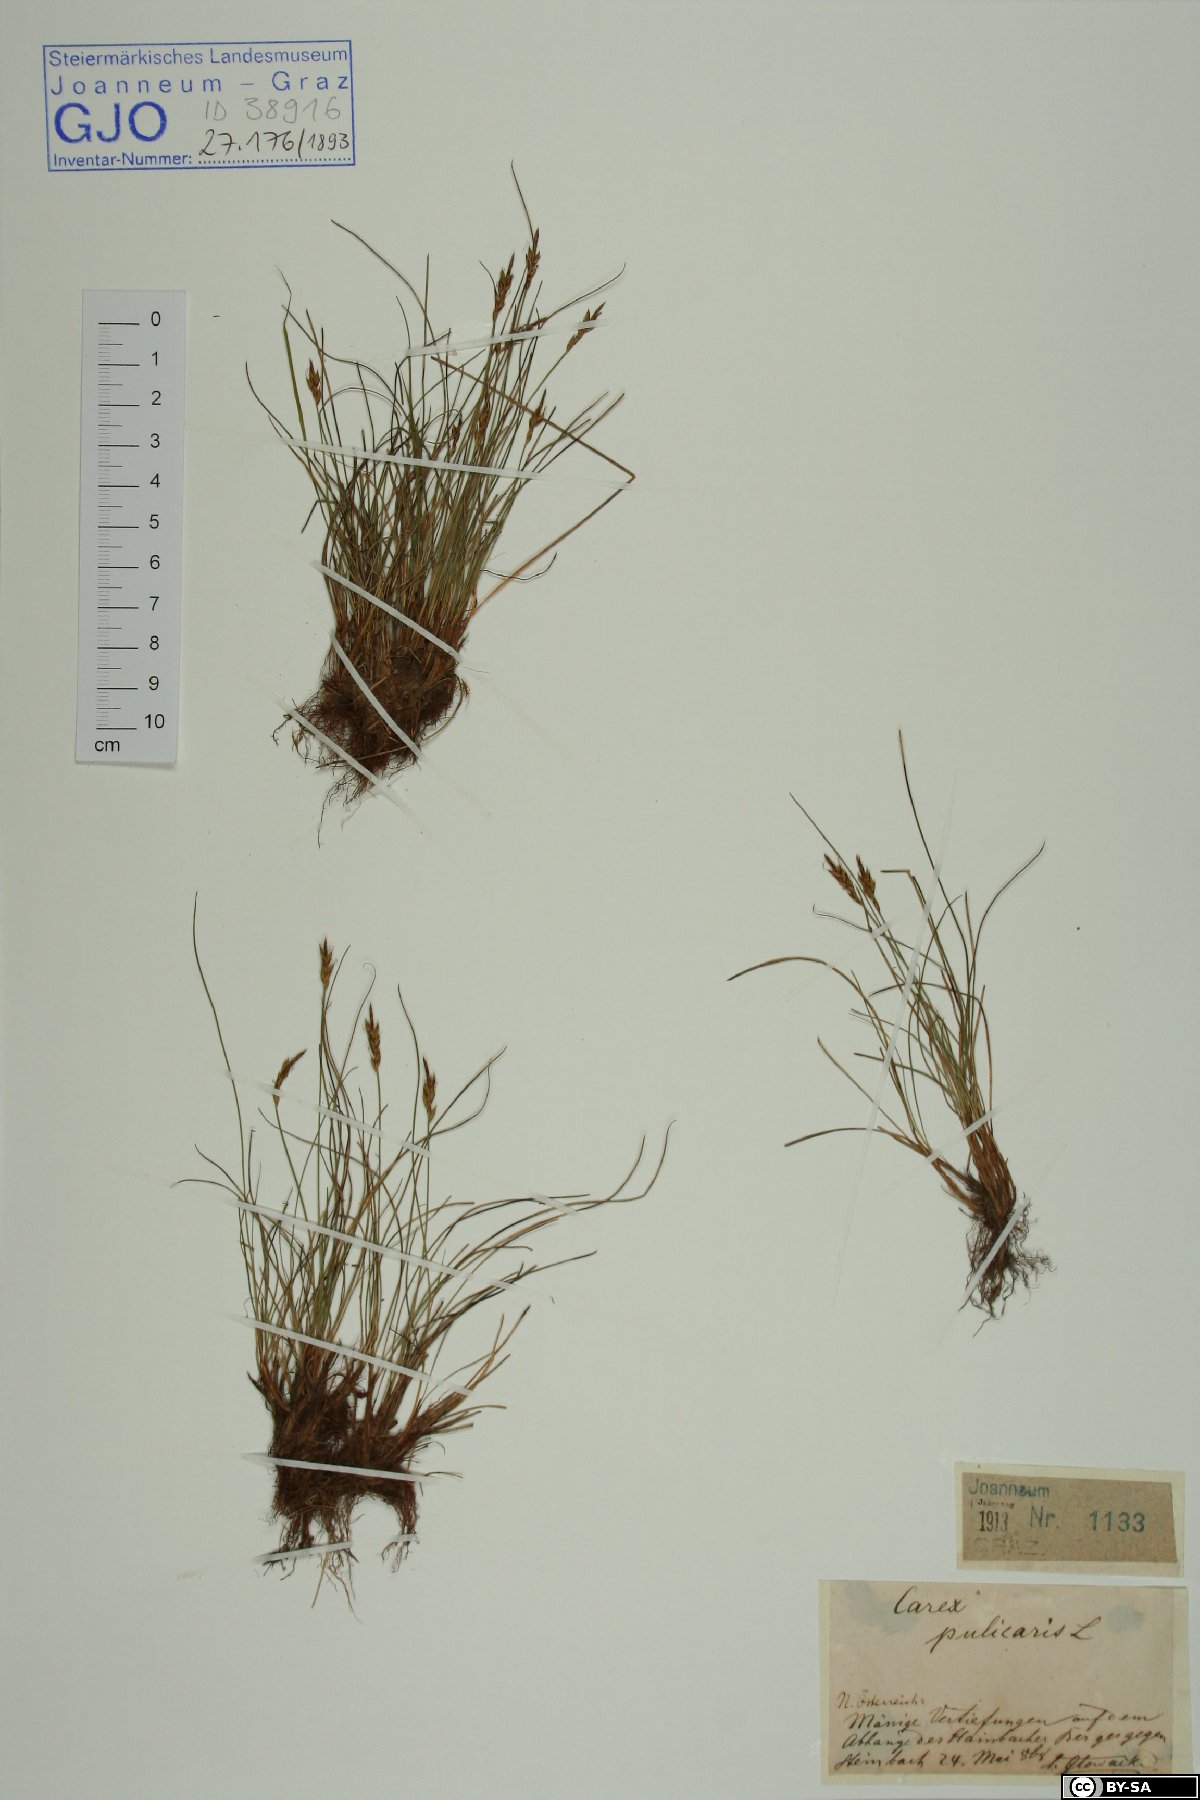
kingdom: Plantae
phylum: Tracheophyta
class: Liliopsida
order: Poales
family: Cyperaceae
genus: Carex
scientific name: Carex pulicaris
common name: Flea sedge
